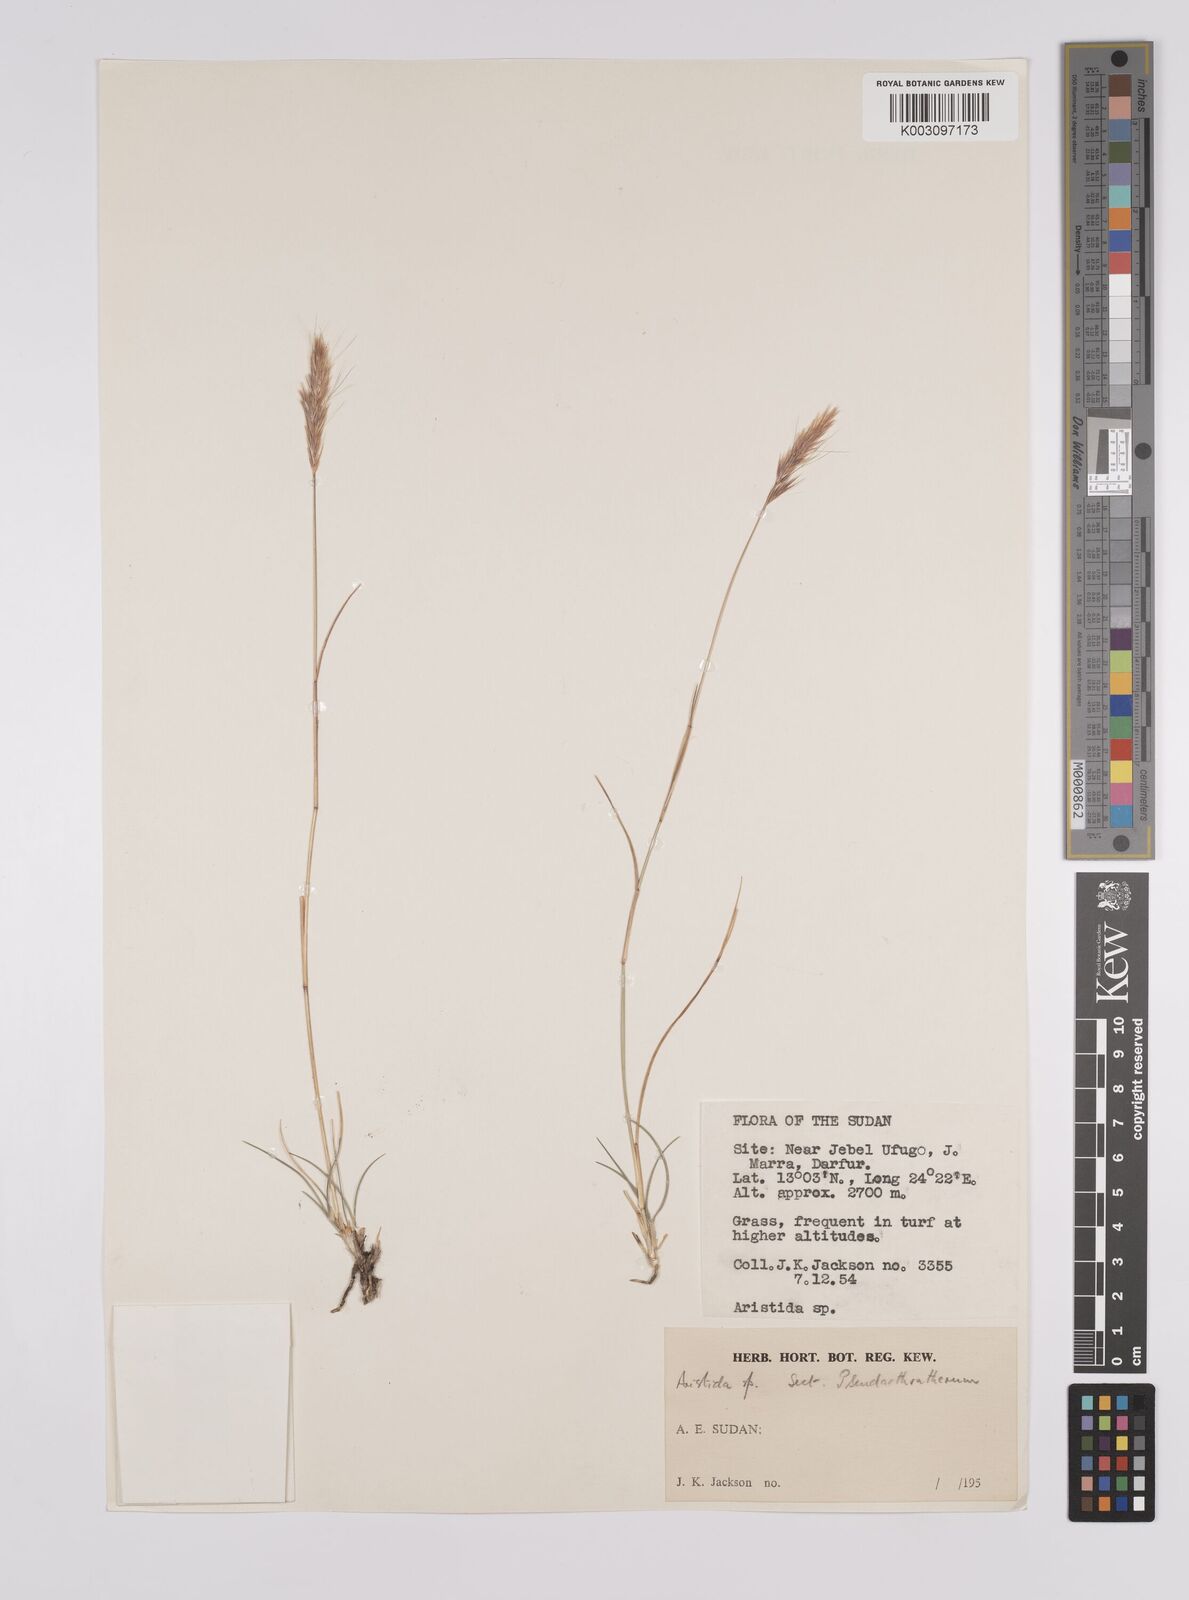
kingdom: Plantae
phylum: Tracheophyta
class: Liliopsida
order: Poales
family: Poaceae
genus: Aristida
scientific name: Aristida congesta
